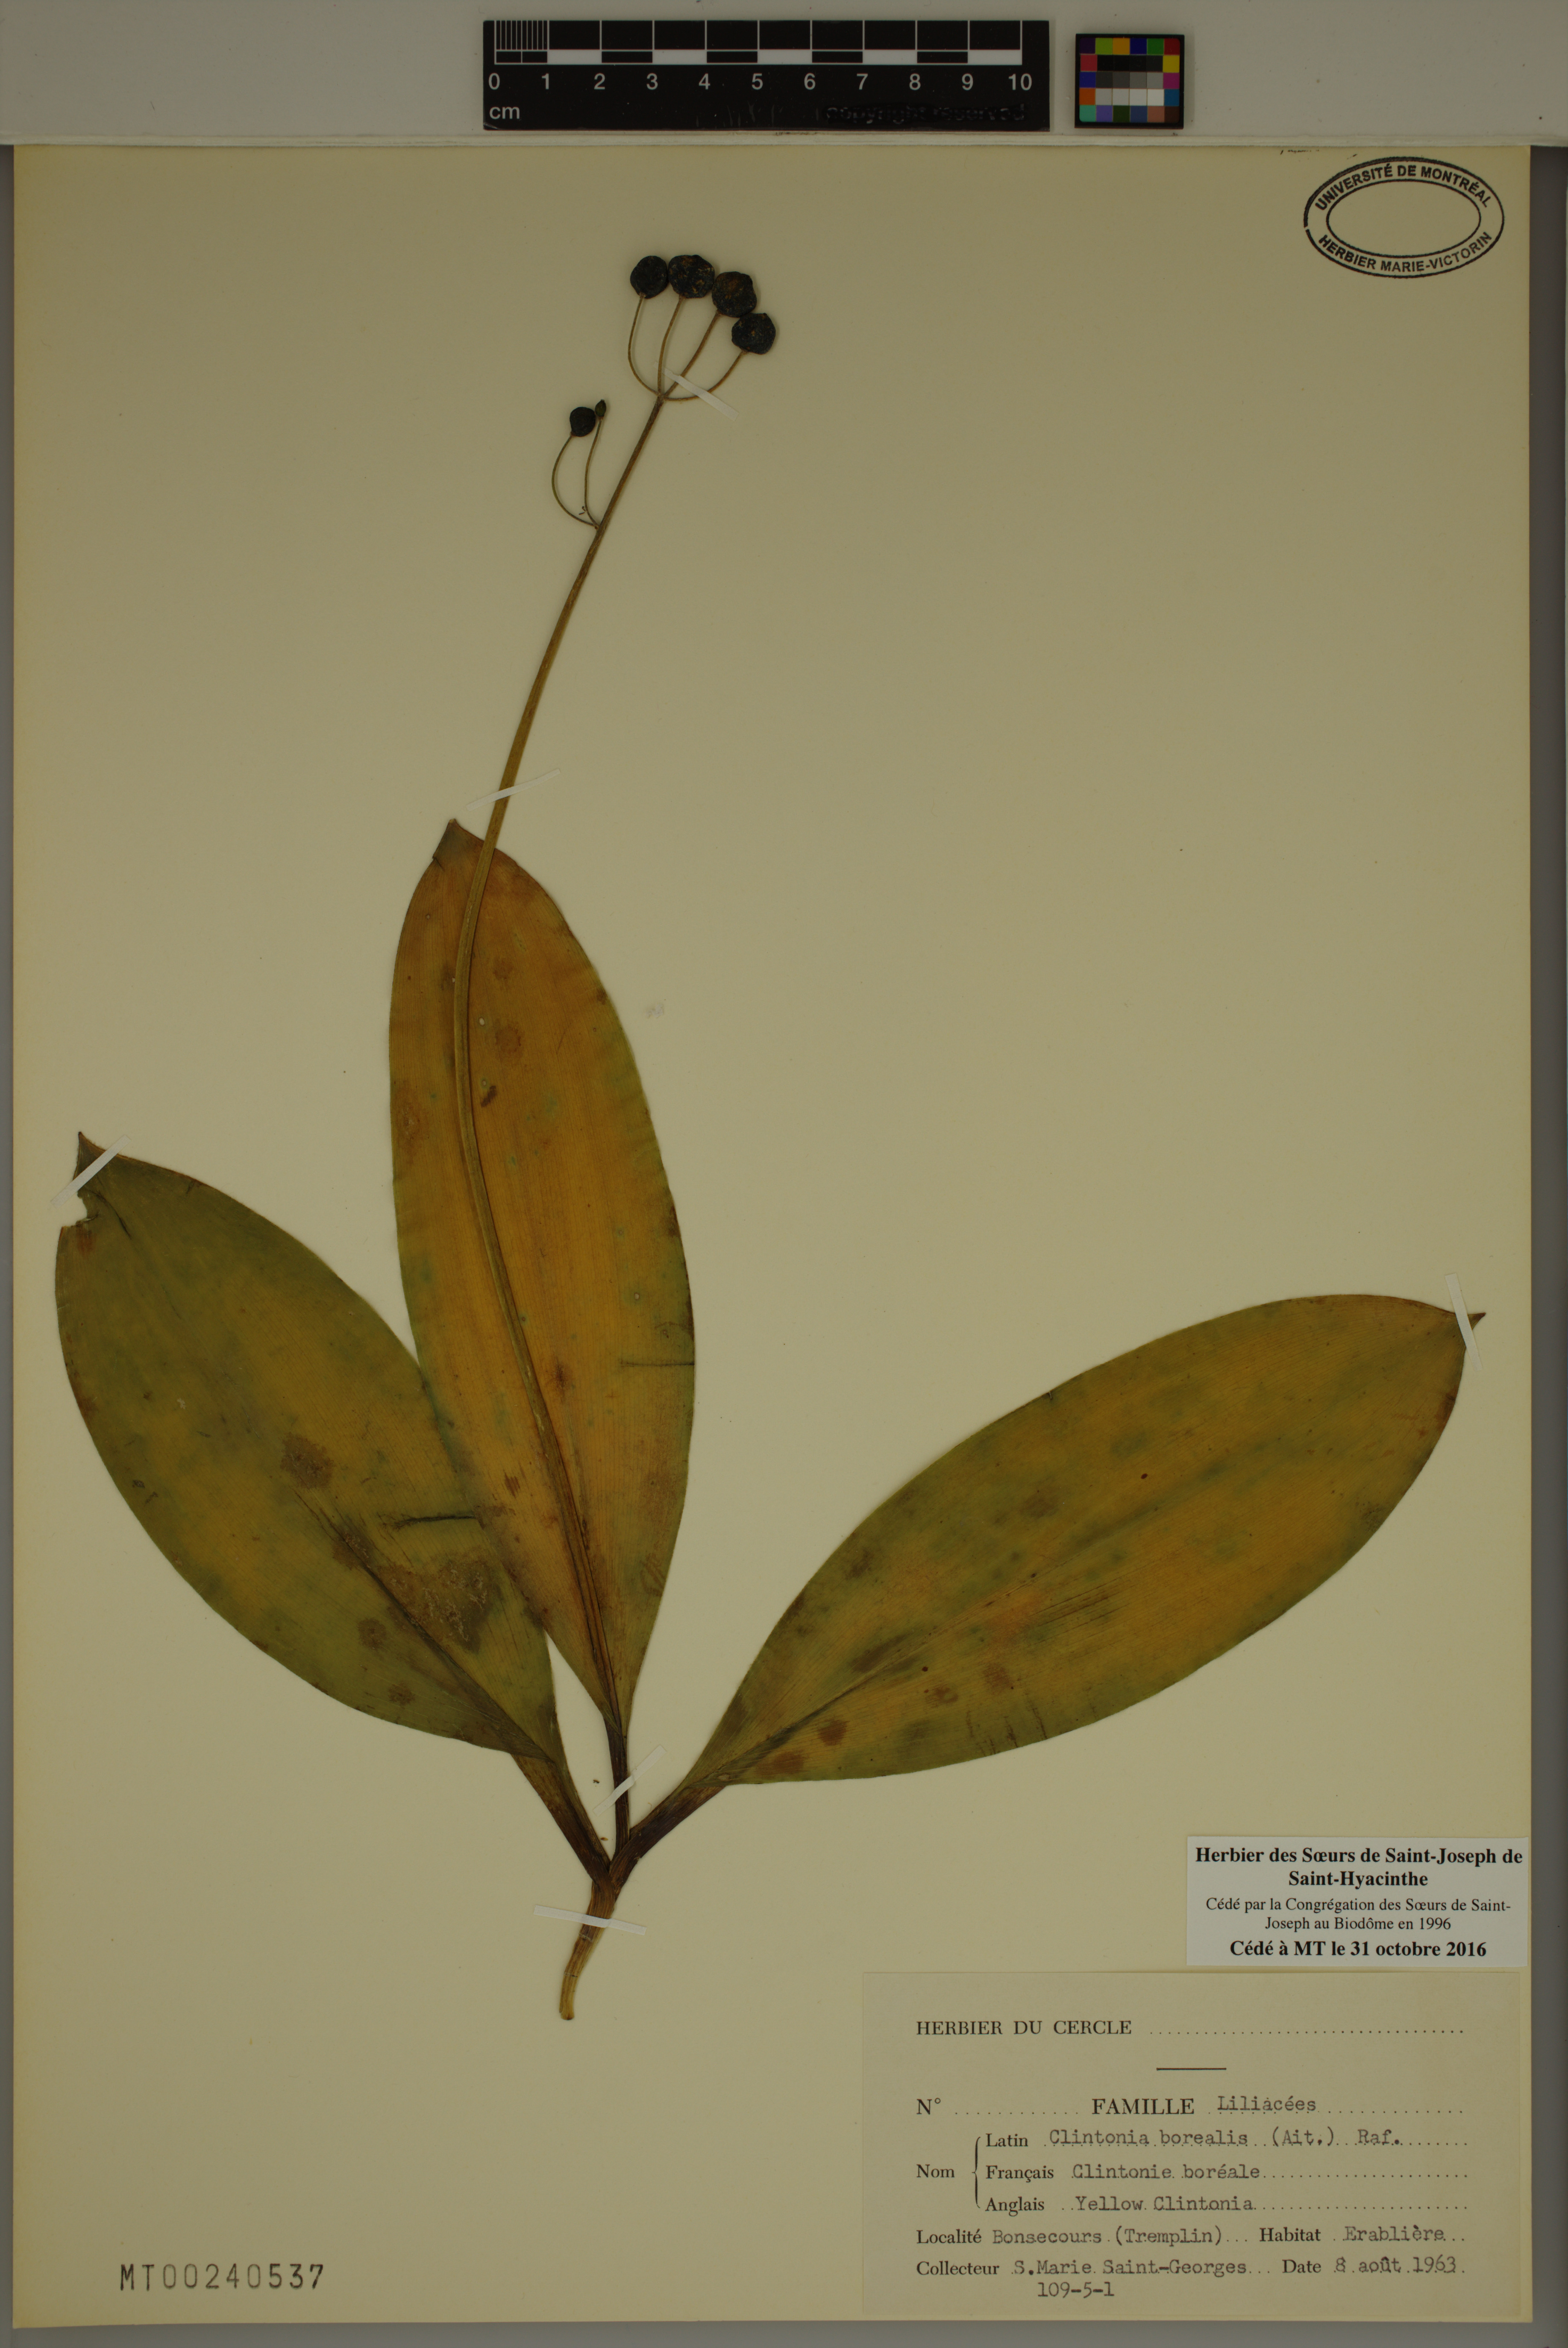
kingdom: Plantae
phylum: Tracheophyta
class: Liliopsida
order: Liliales
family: Liliaceae
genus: Clintonia
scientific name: Clintonia borealis
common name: Yellow clintonia
